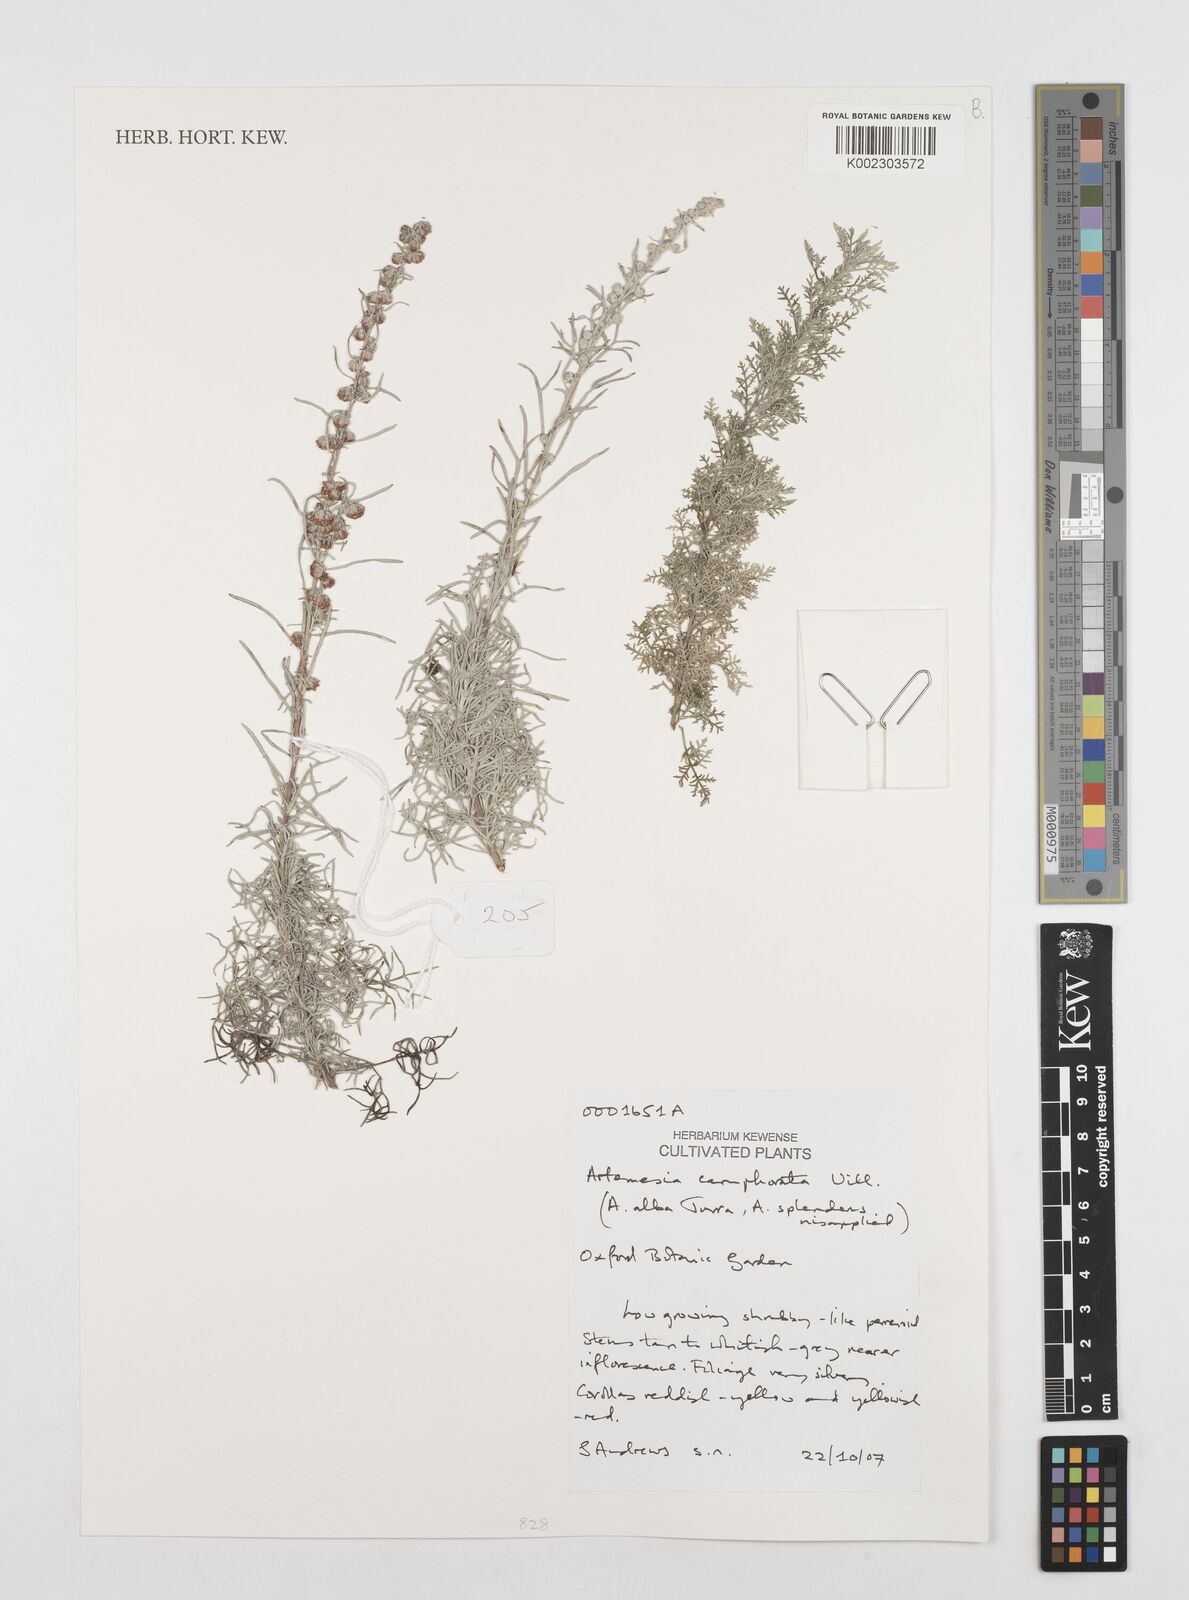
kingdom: Plantae
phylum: Tracheophyta
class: Magnoliopsida
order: Asterales
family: Asteraceae
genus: Artemisia
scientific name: Artemisia alba
